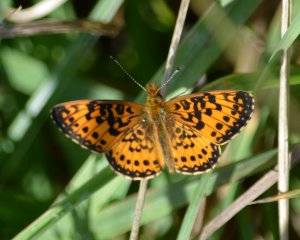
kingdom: Animalia
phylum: Arthropoda
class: Insecta
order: Lepidoptera
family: Nymphalidae
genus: Boloria
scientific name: Boloria selene
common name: Silver-bordered Fritillary
